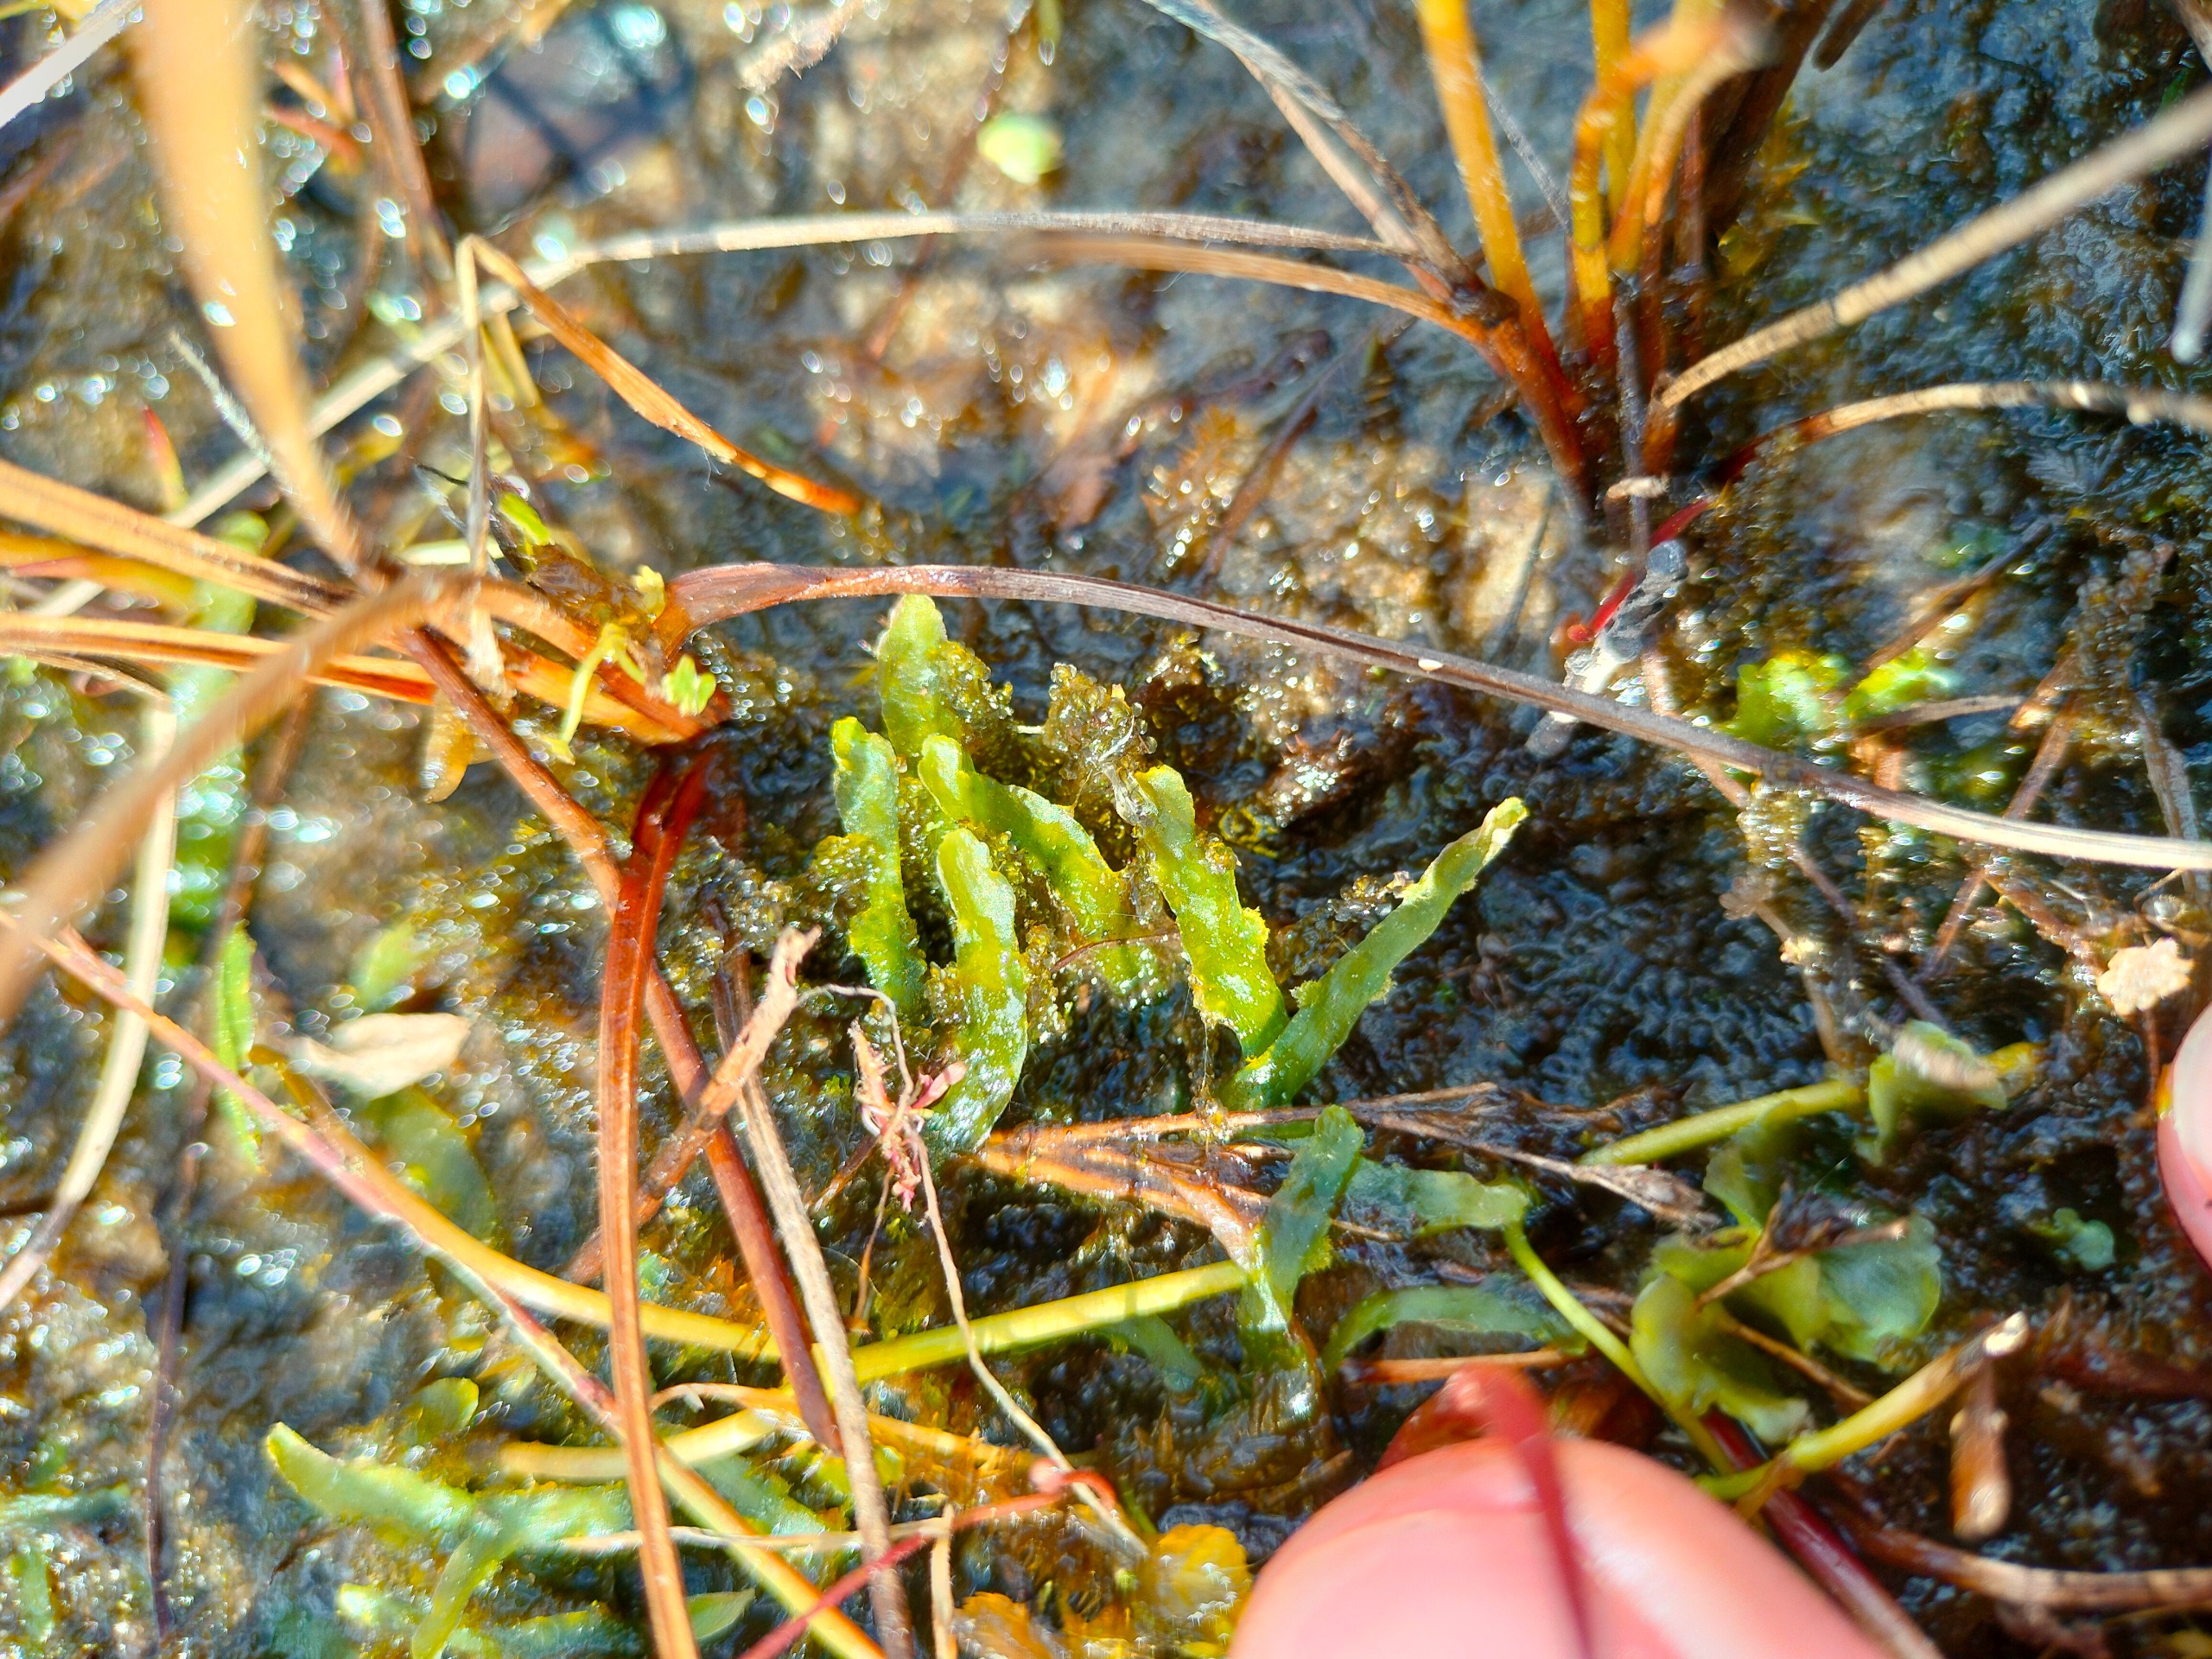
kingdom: Plantae
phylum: Marchantiophyta
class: Jungermanniopsida
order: Metzgeriales
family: Aneuraceae
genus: Aneura
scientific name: Aneura pinguis
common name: Tyk nerveløs
